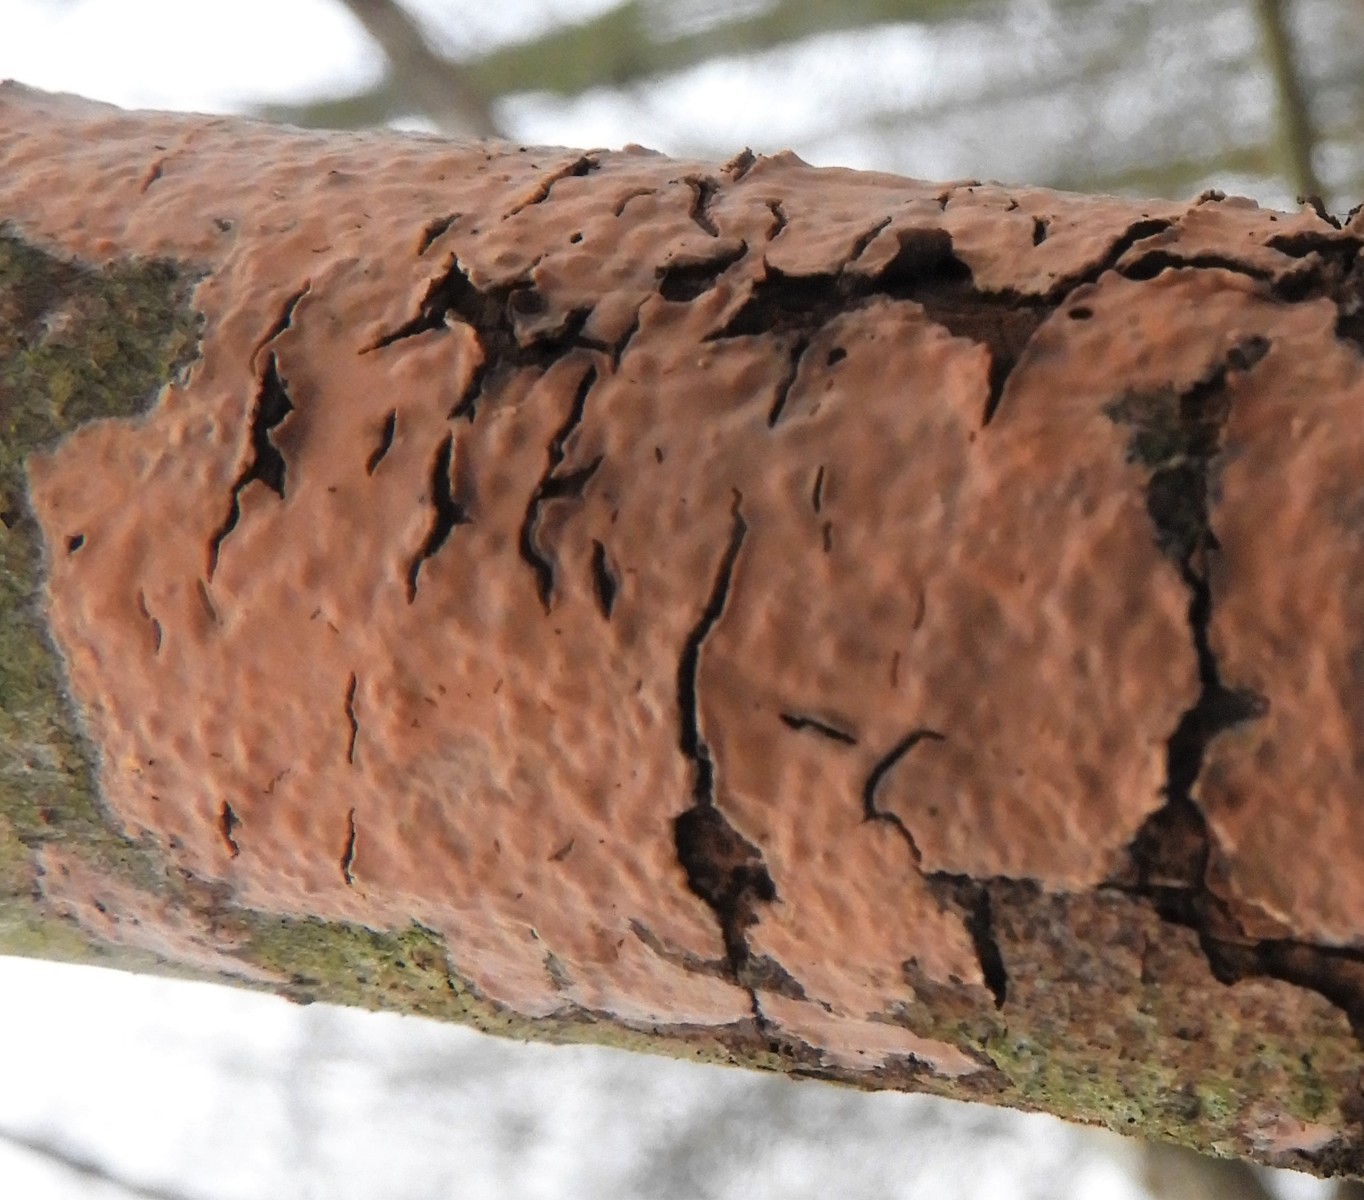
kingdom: Fungi
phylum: Basidiomycota
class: Agaricomycetes
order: Russulales
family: Peniophoraceae
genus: Peniophora
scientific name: Peniophora incarnata
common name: laksefarvet voksskind
